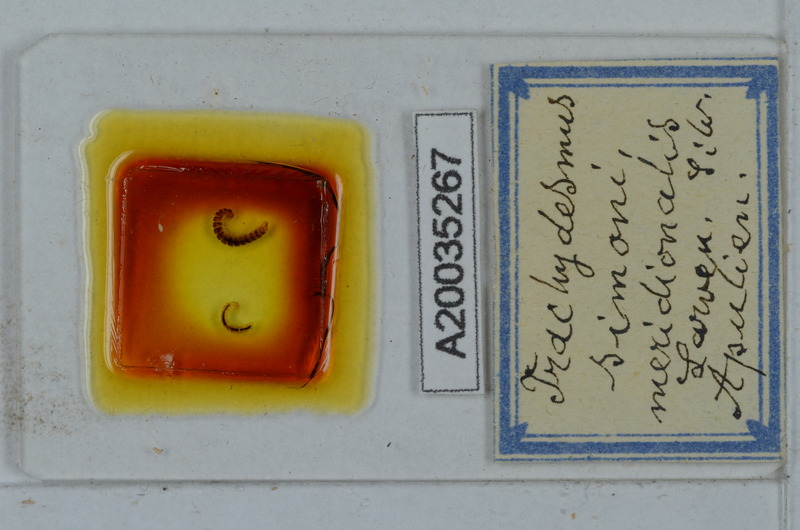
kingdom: Animalia
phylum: Arthropoda
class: Diplopoda
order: Polydesmida
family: Paradoxosomatidae
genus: Stosatea
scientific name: Stosatea granulata
